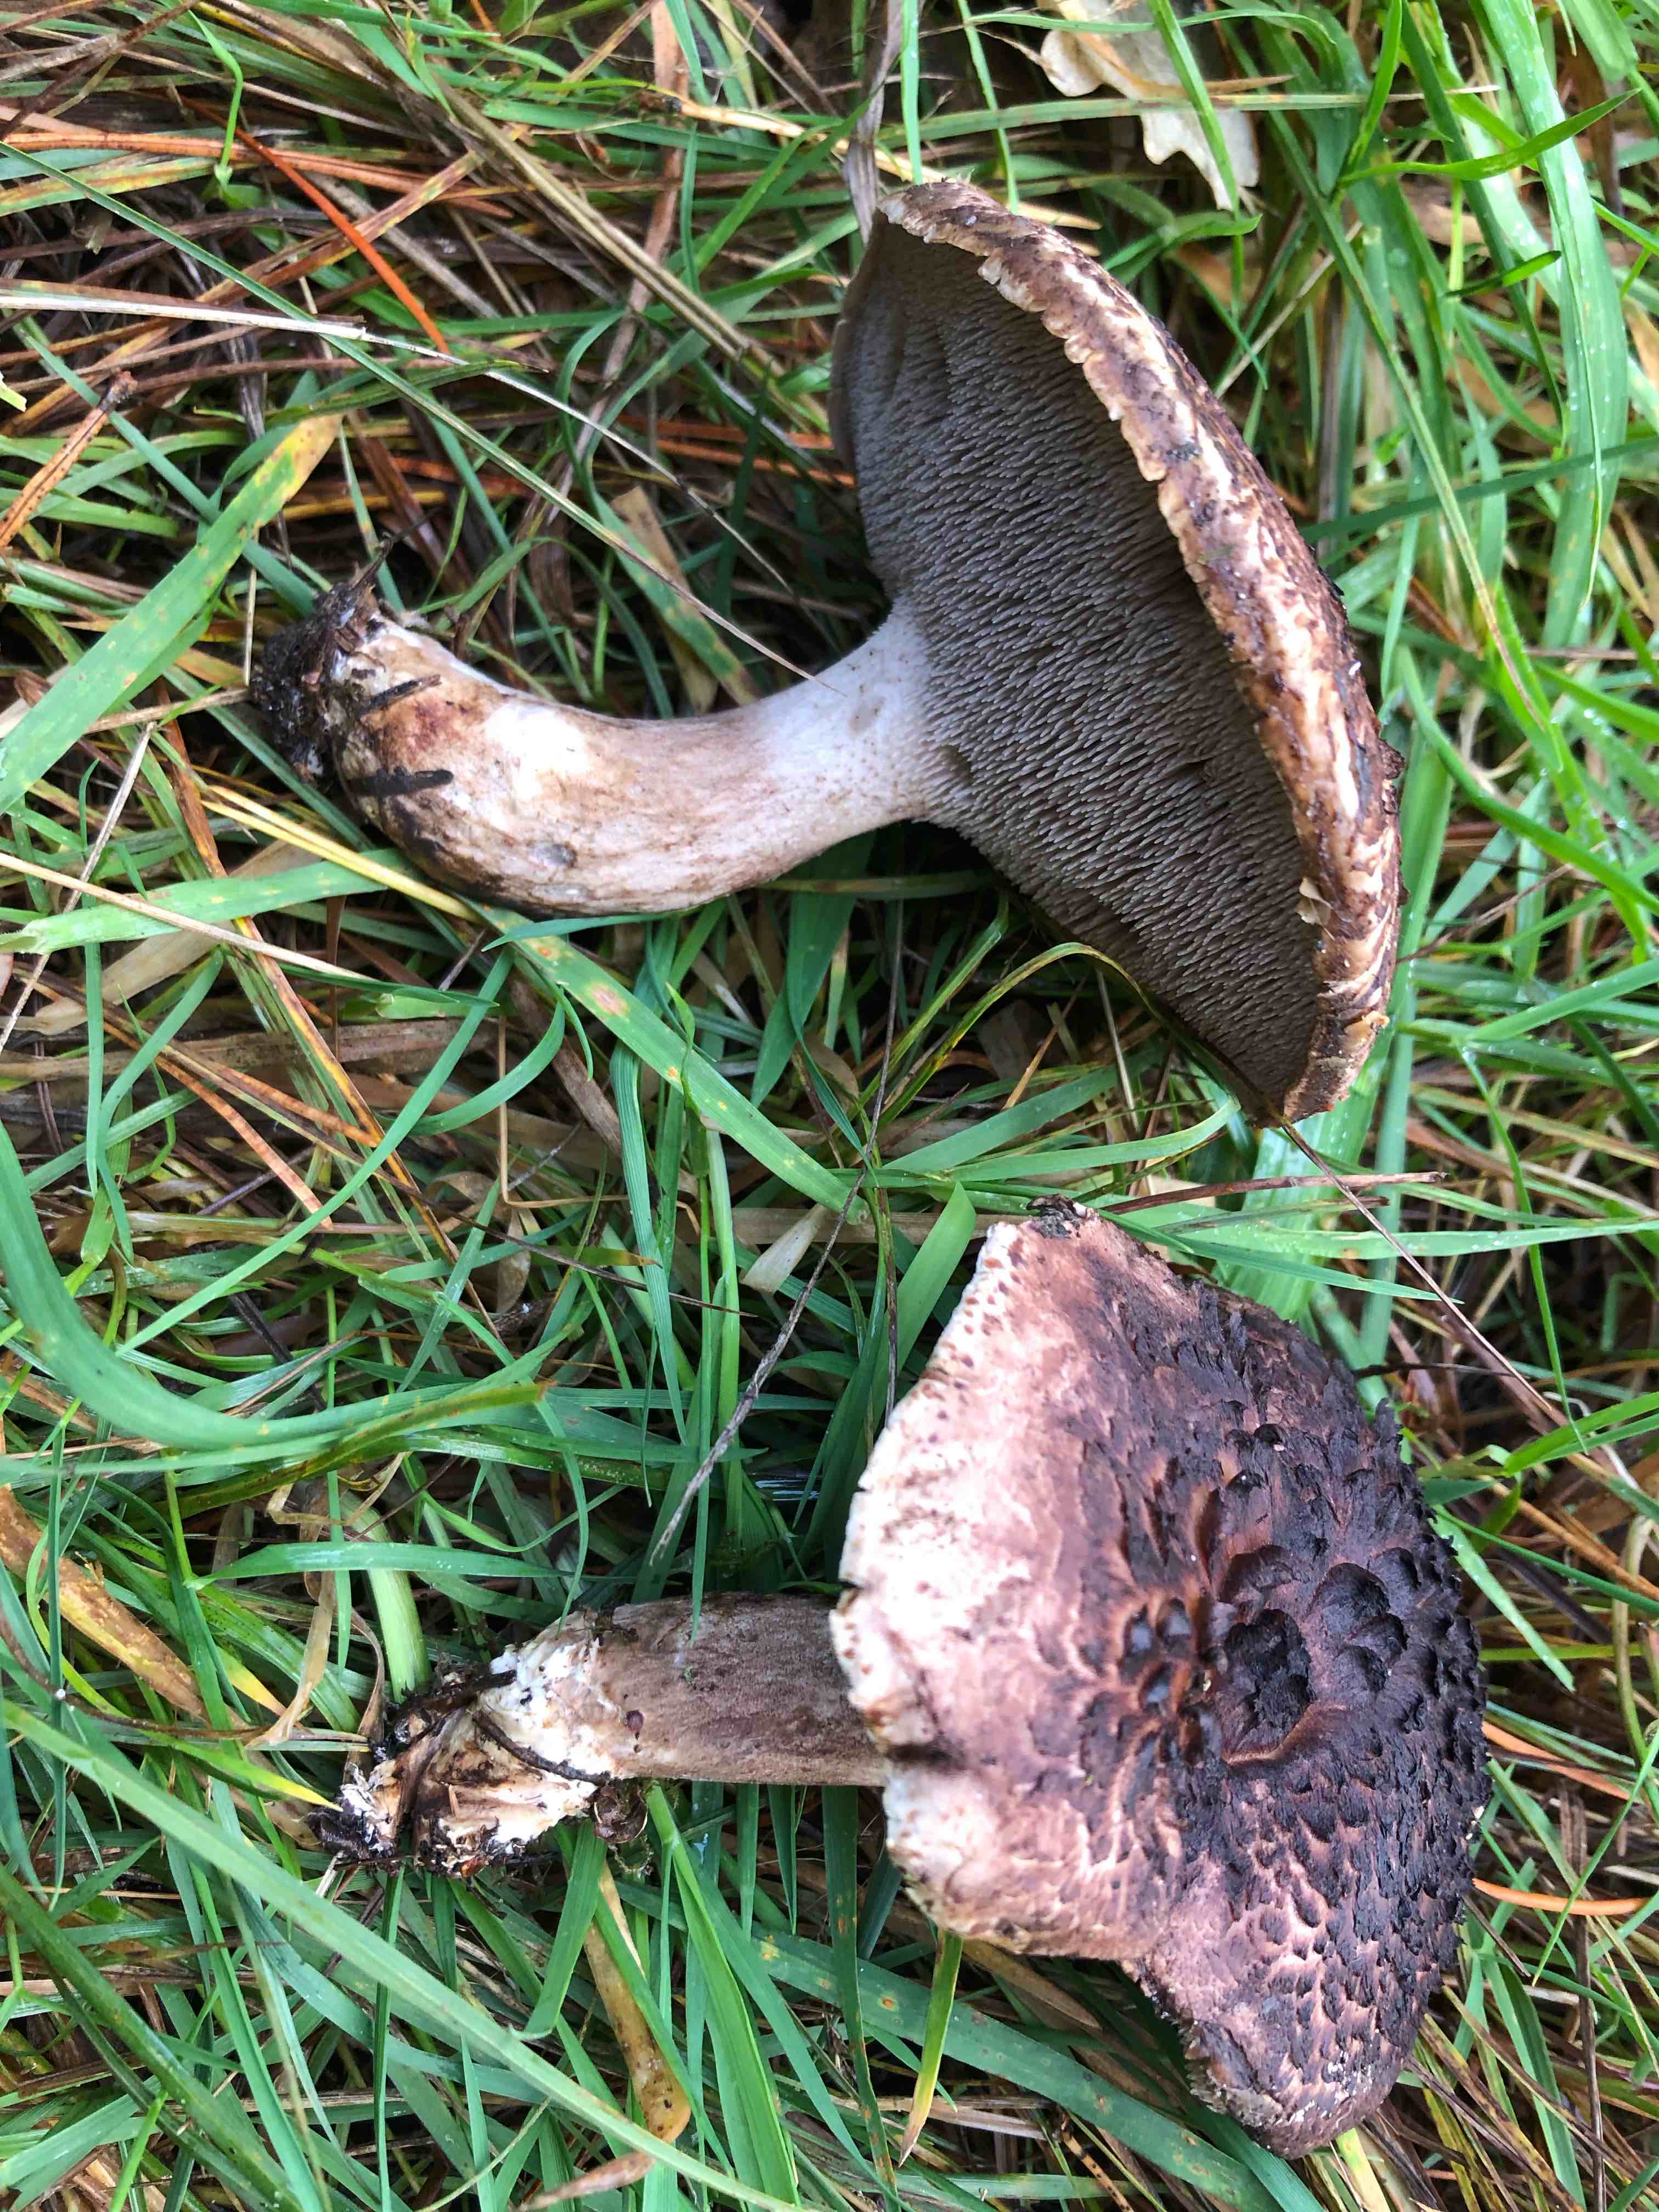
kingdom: Fungi
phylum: Basidiomycota
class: Agaricomycetes
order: Thelephorales
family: Bankeraceae
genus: Sarcodon
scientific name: Sarcodon
